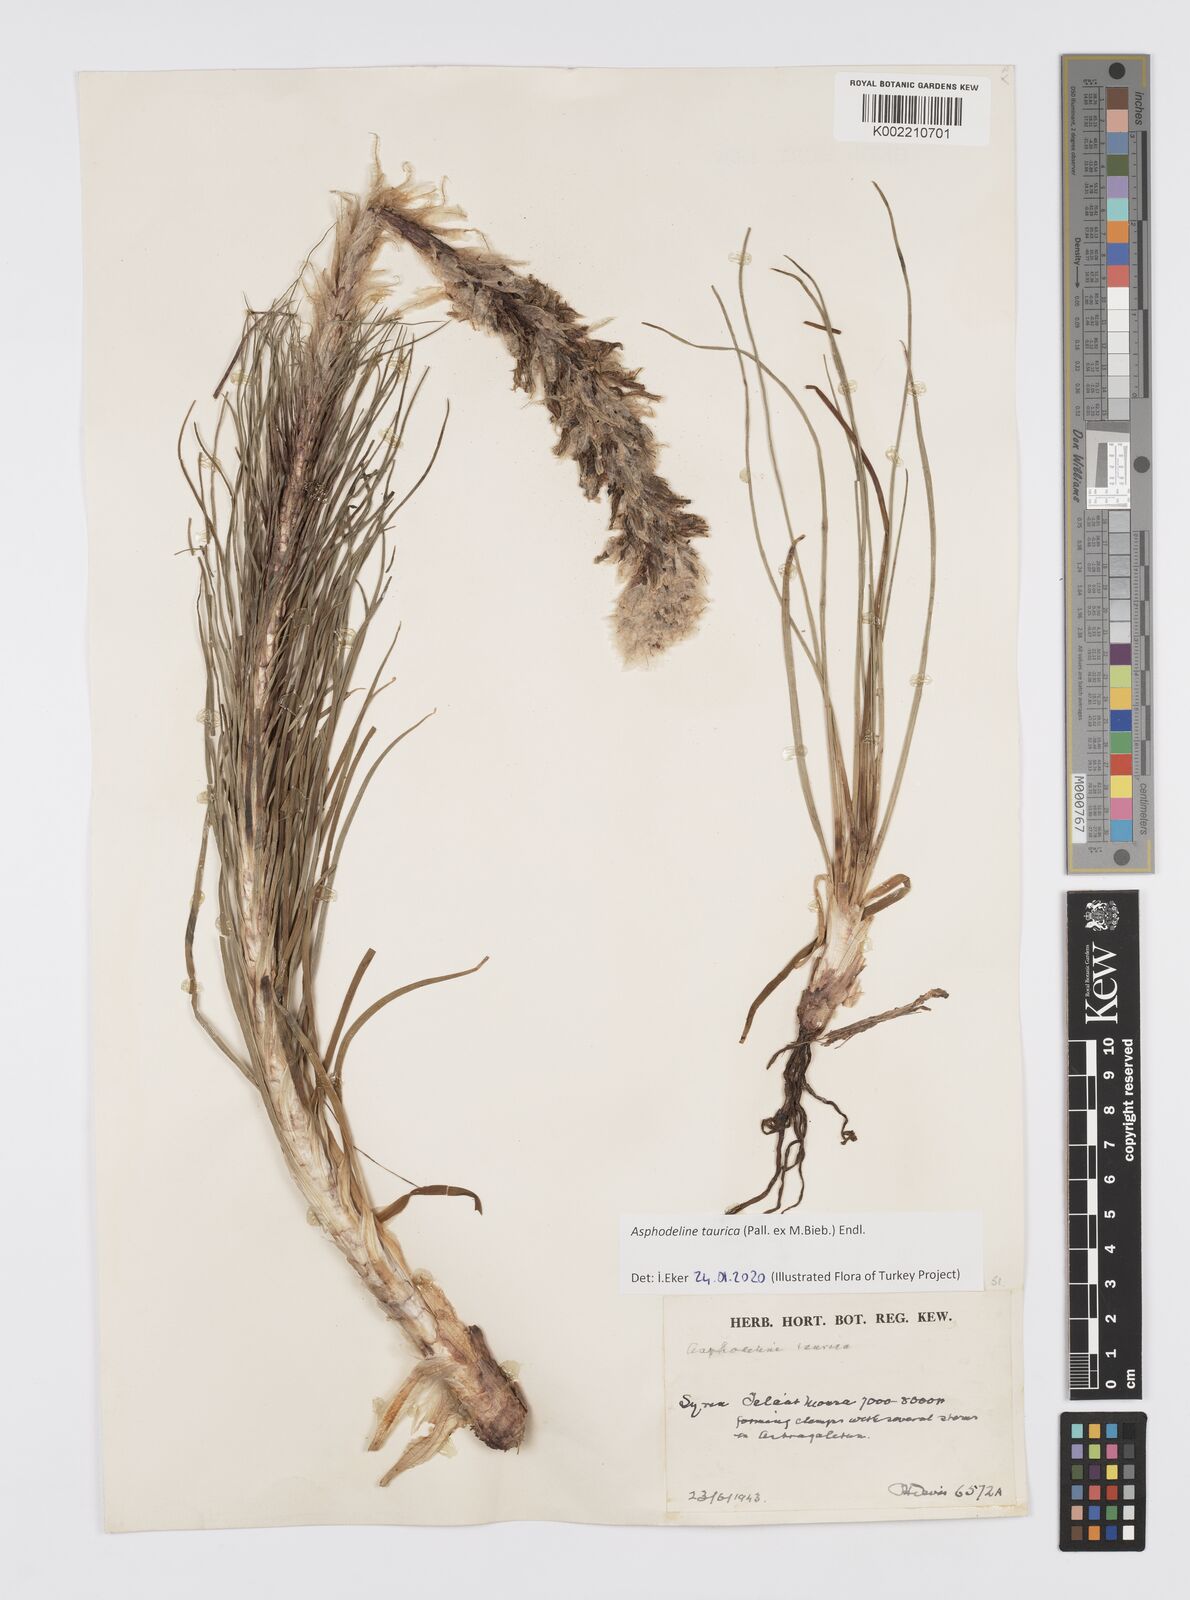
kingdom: Plantae
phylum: Tracheophyta
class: Liliopsida
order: Asparagales
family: Asphodelaceae
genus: Asphodeline
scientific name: Asphodeline taurica
